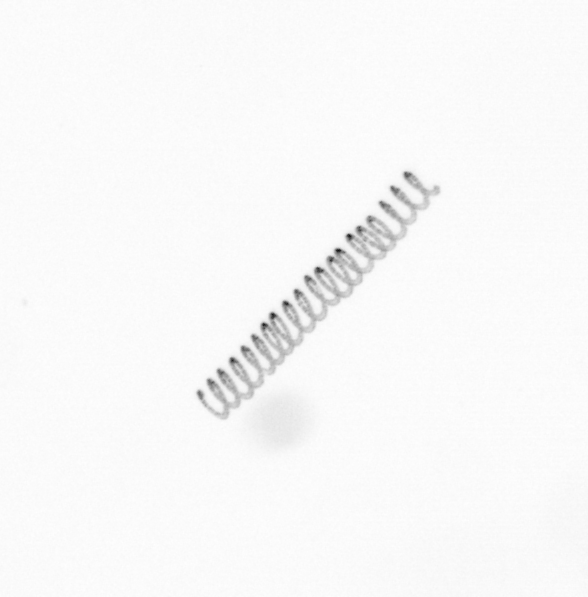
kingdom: Chromista
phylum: Ochrophyta
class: Bacillariophyceae
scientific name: Bacillariophyceae
